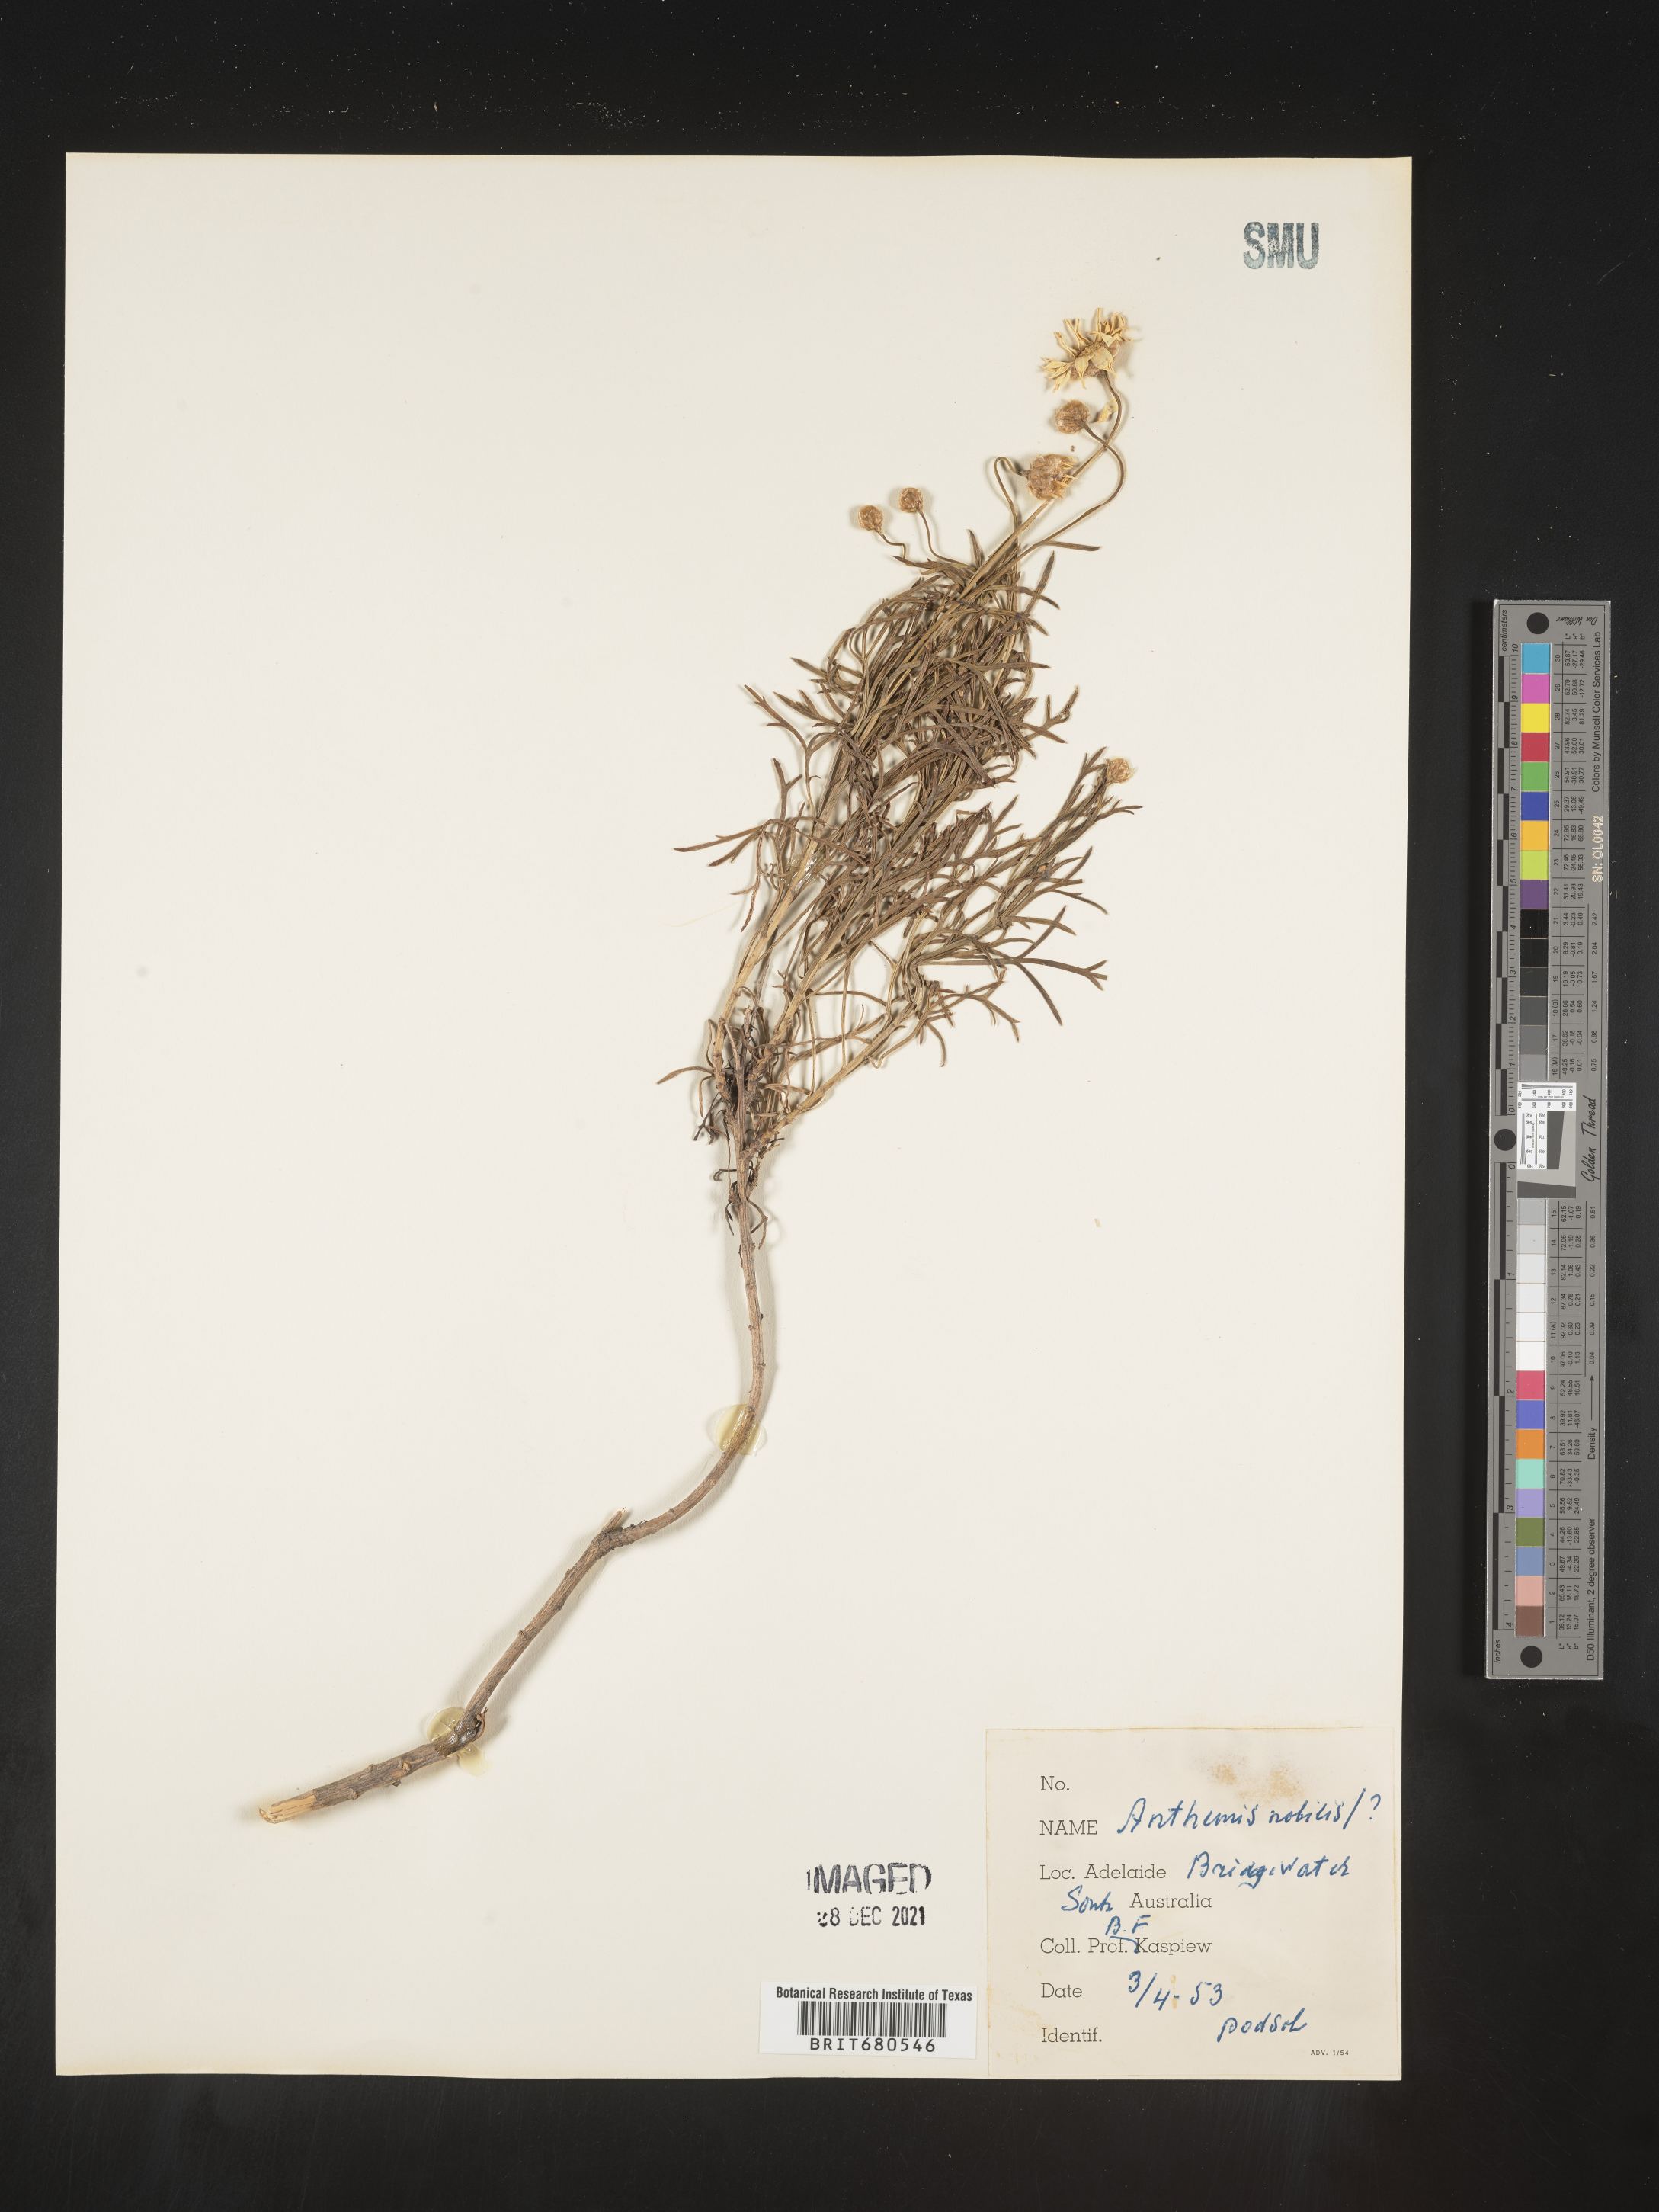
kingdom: Plantae
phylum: Tracheophyta
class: Magnoliopsida
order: Asterales
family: Asteraceae
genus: Chamaemelum
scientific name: Chamaemelum nobile
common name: Roman chamomile
